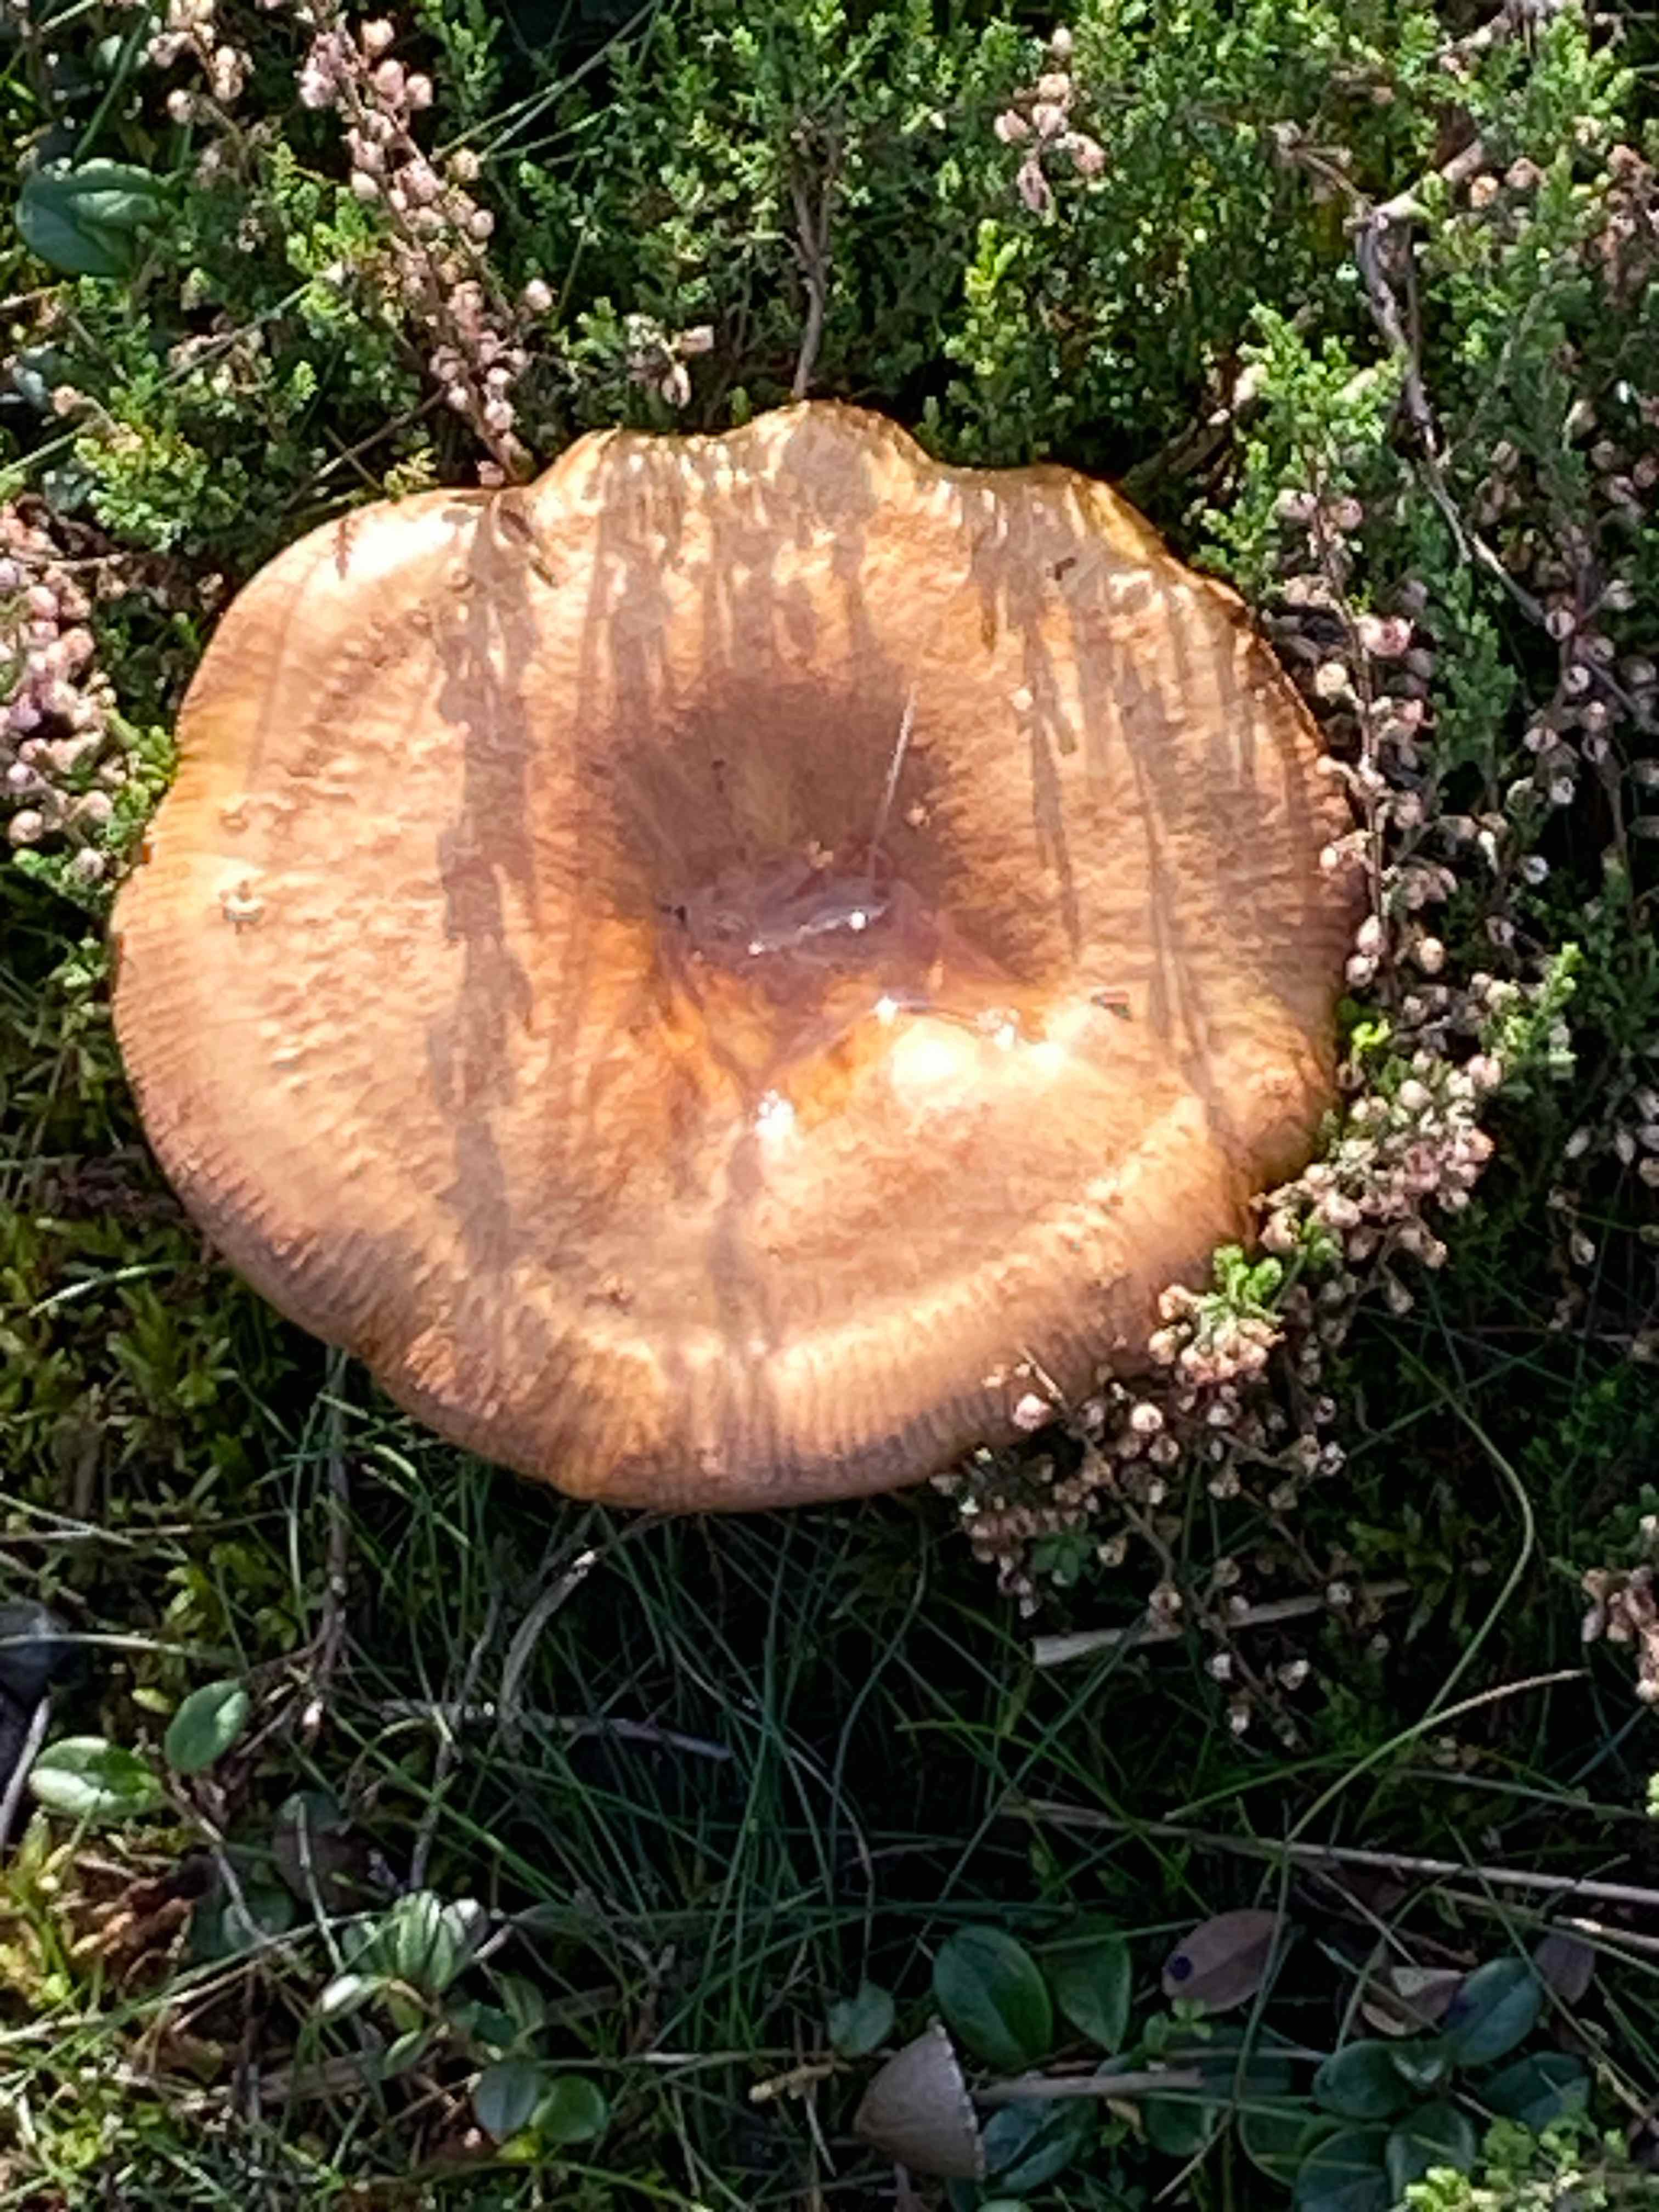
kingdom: Fungi
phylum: Basidiomycota
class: Agaricomycetes
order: Boletales
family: Paxillaceae
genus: Paxillus
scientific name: Paxillus involutus
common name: almindelig netbladhat
